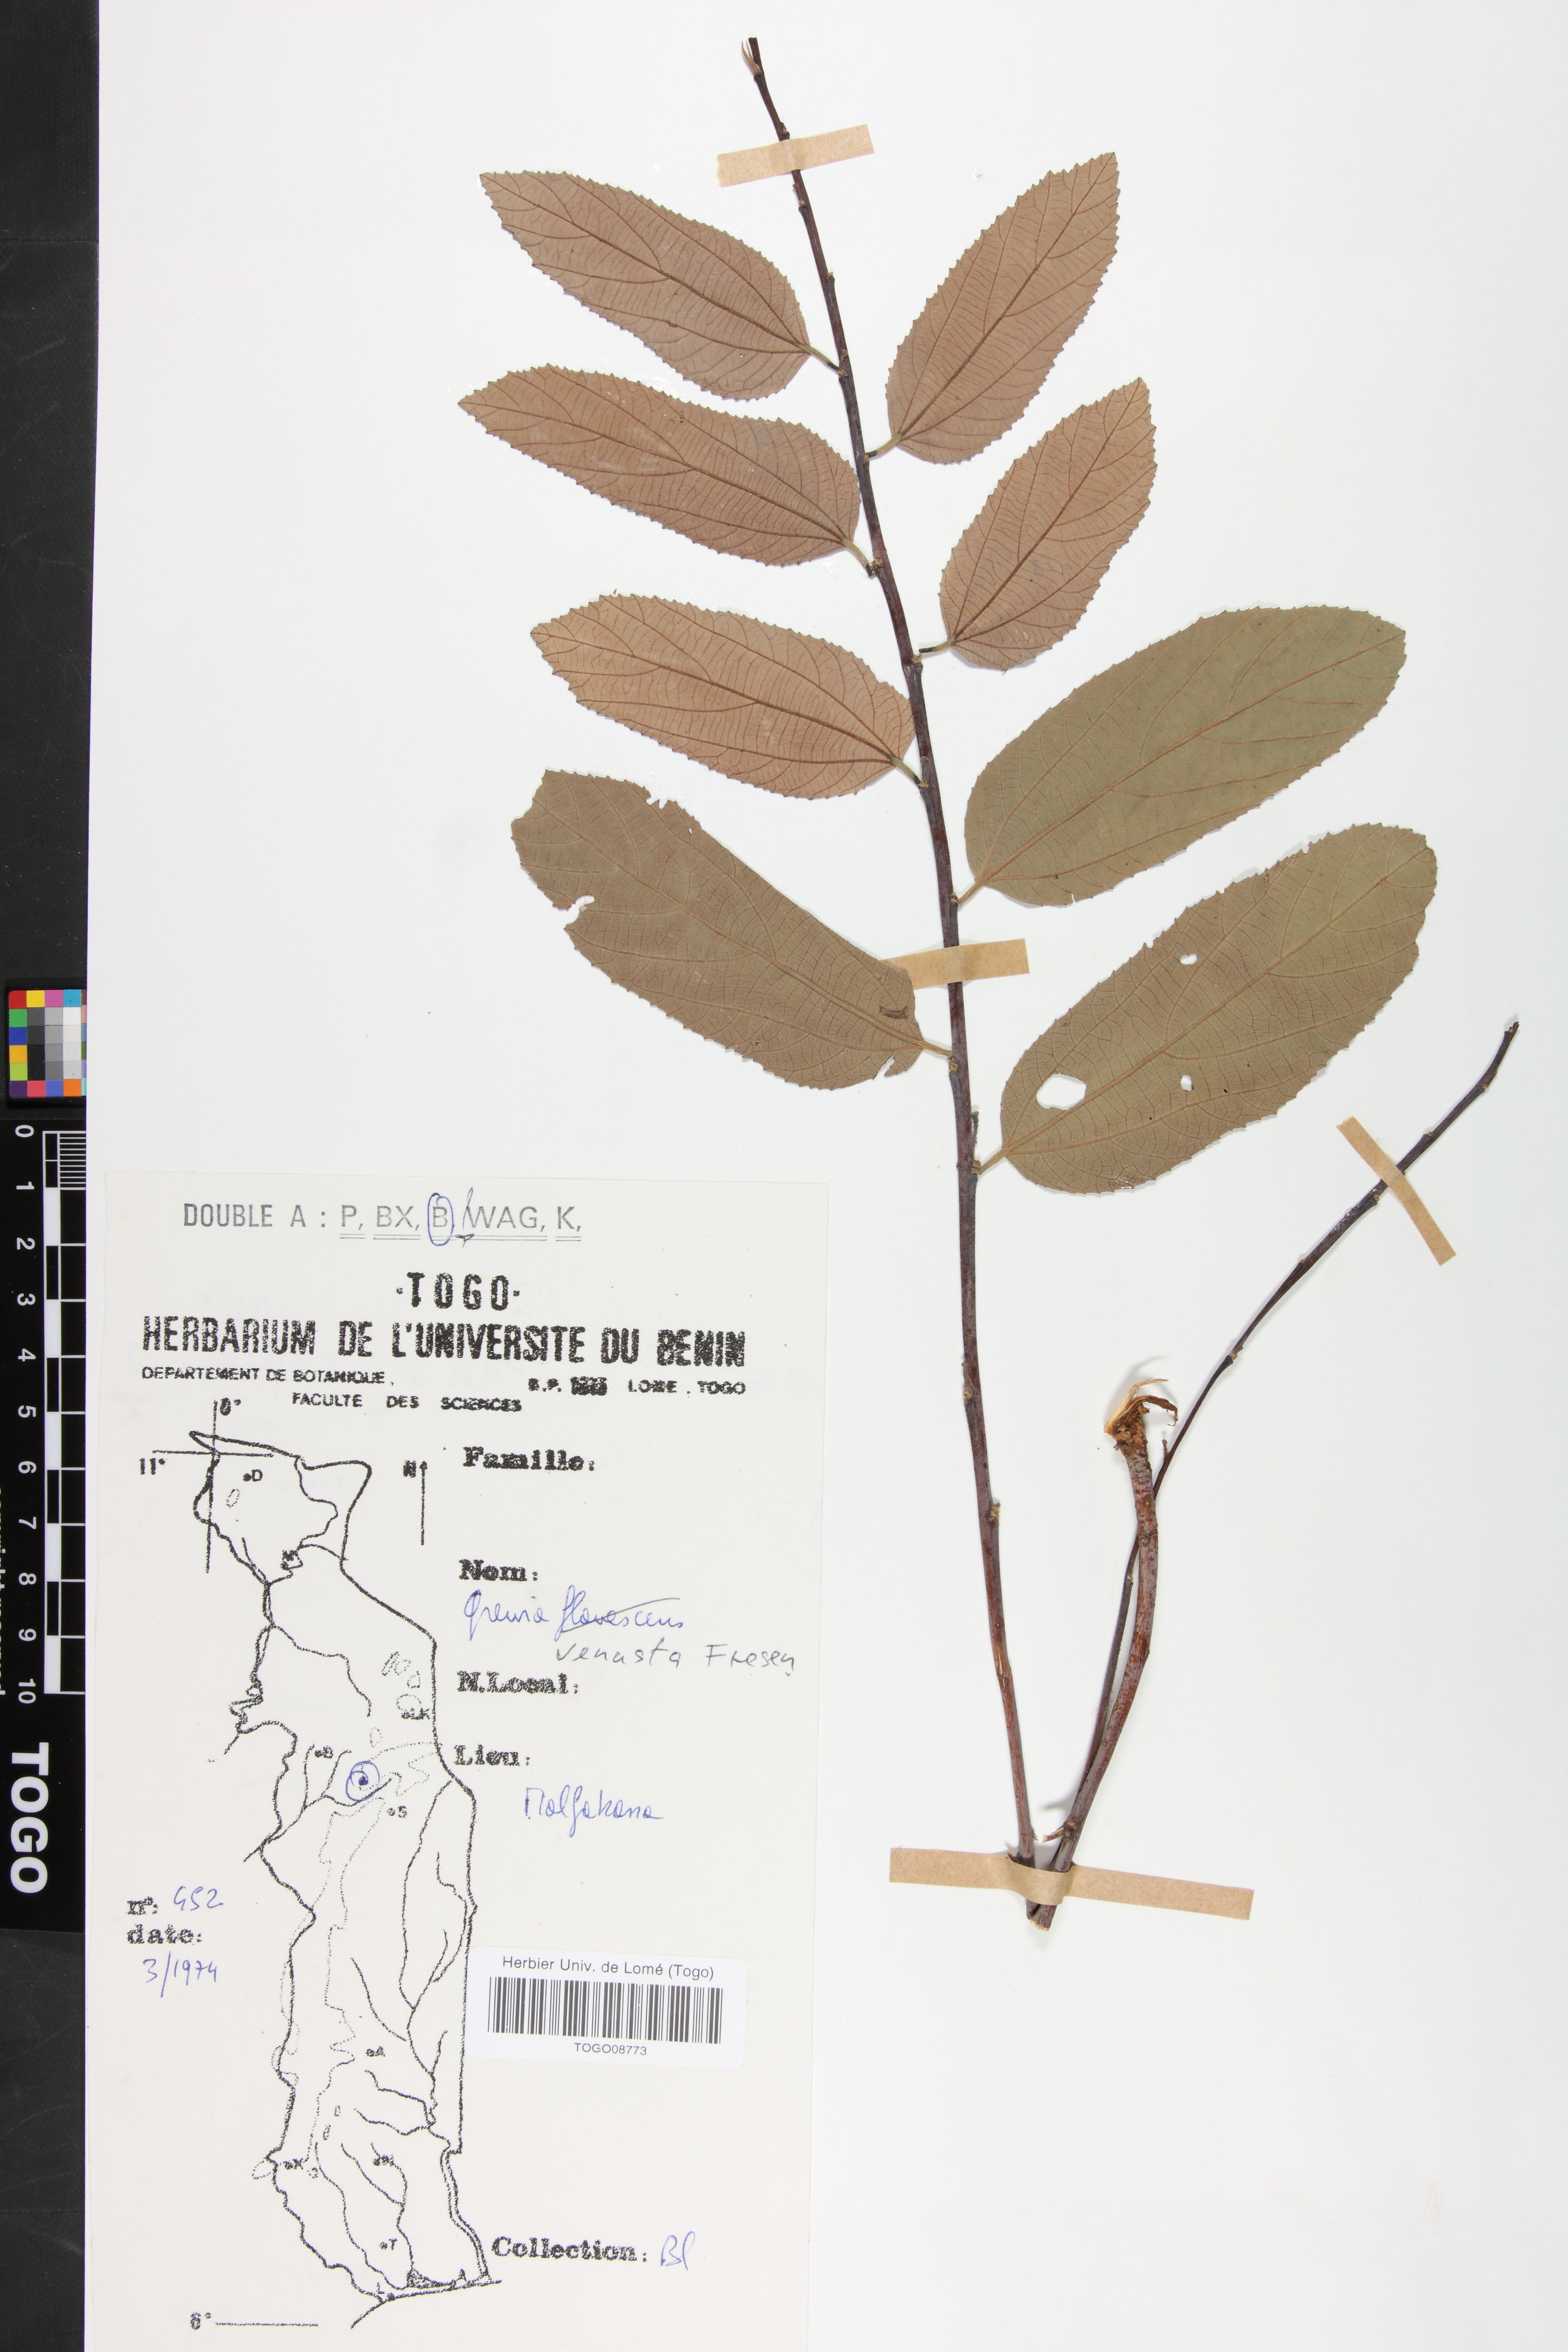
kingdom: Plantae
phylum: Tracheophyta
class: Magnoliopsida
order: Malvales
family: Malvaceae
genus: Grewia
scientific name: Grewia mollis
